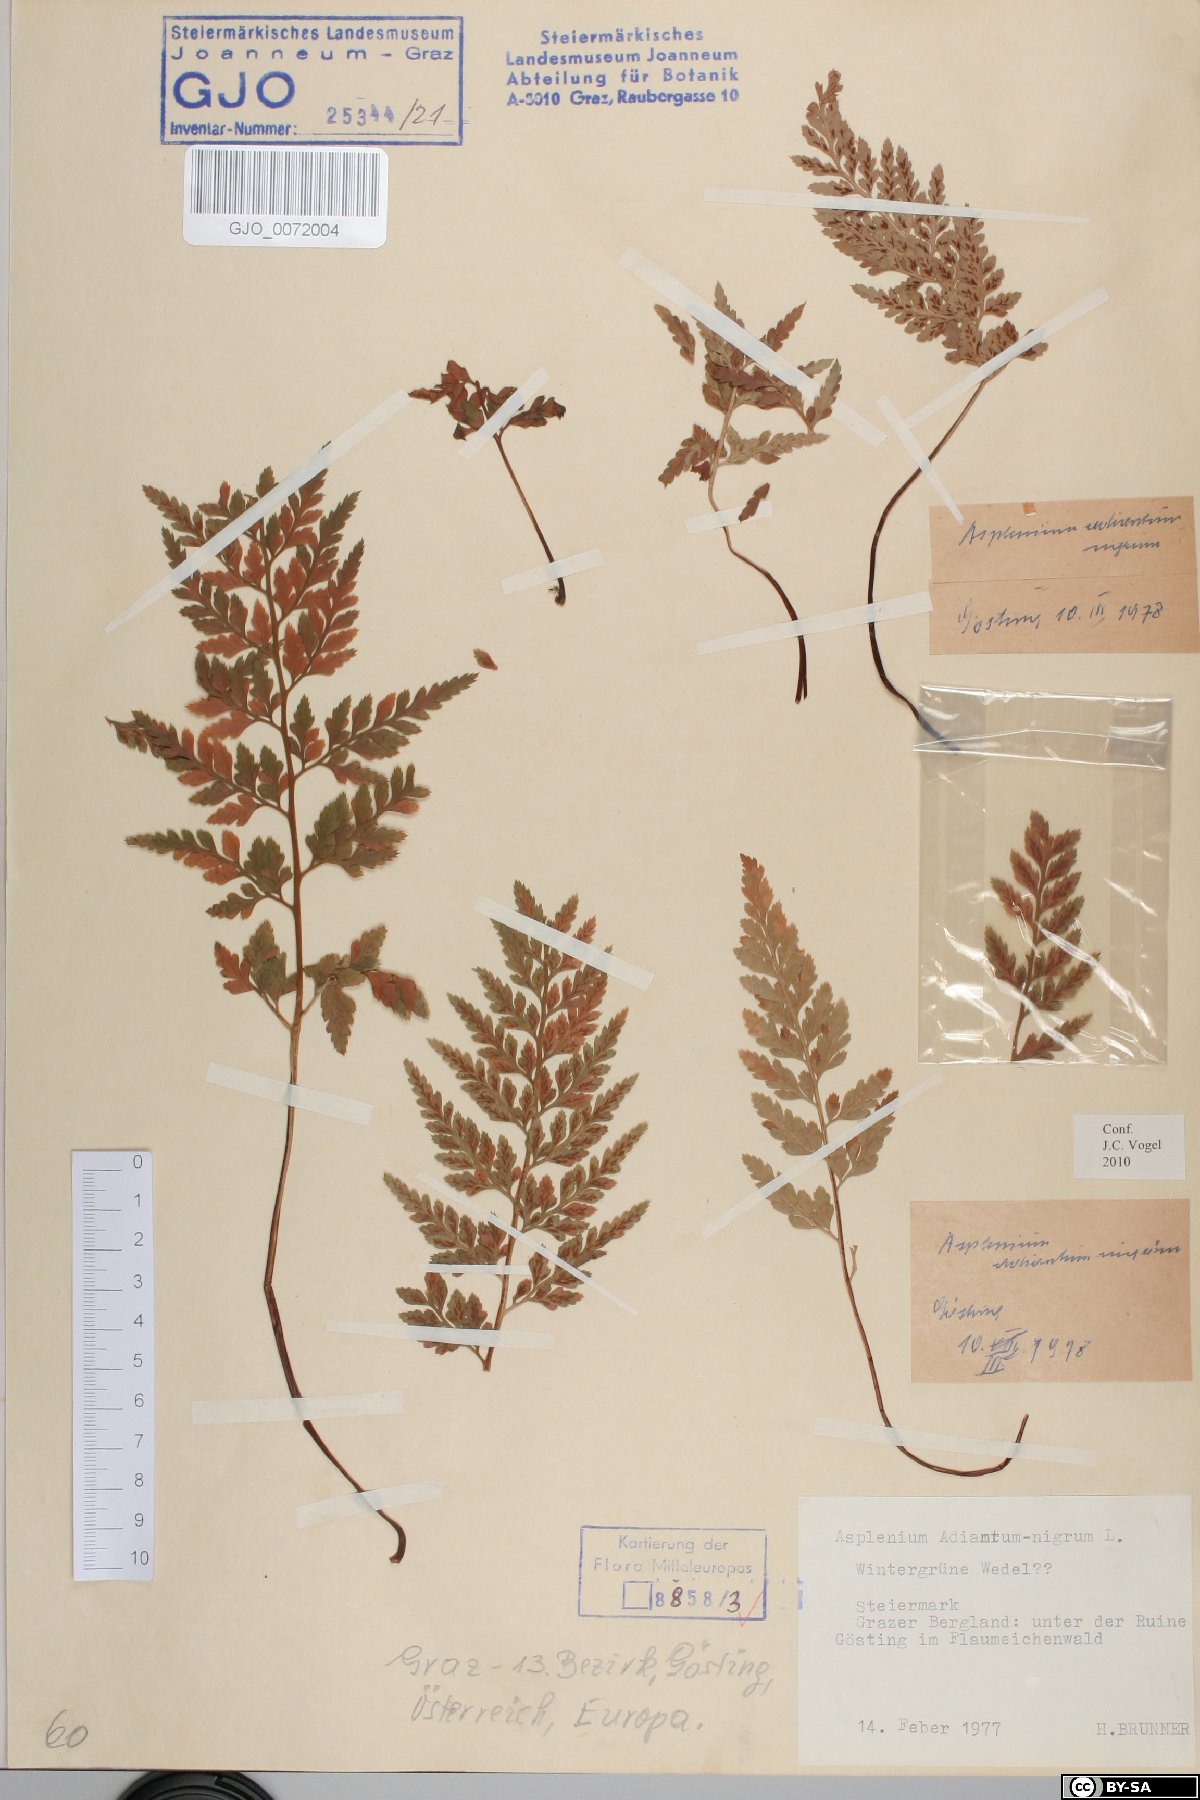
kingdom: Plantae
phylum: Tracheophyta
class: Polypodiopsida
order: Polypodiales
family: Aspleniaceae
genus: Asplenium
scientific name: Asplenium adiantum-nigrum
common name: Black spleenwort
